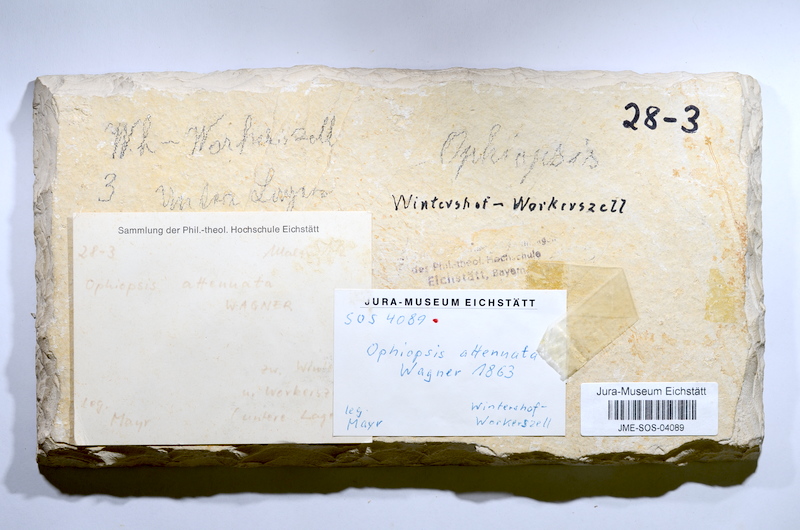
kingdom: Animalia
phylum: Chordata
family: Ophiopsiellidae
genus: Ophiopsiella
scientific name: Ophiopsiella attenuata
